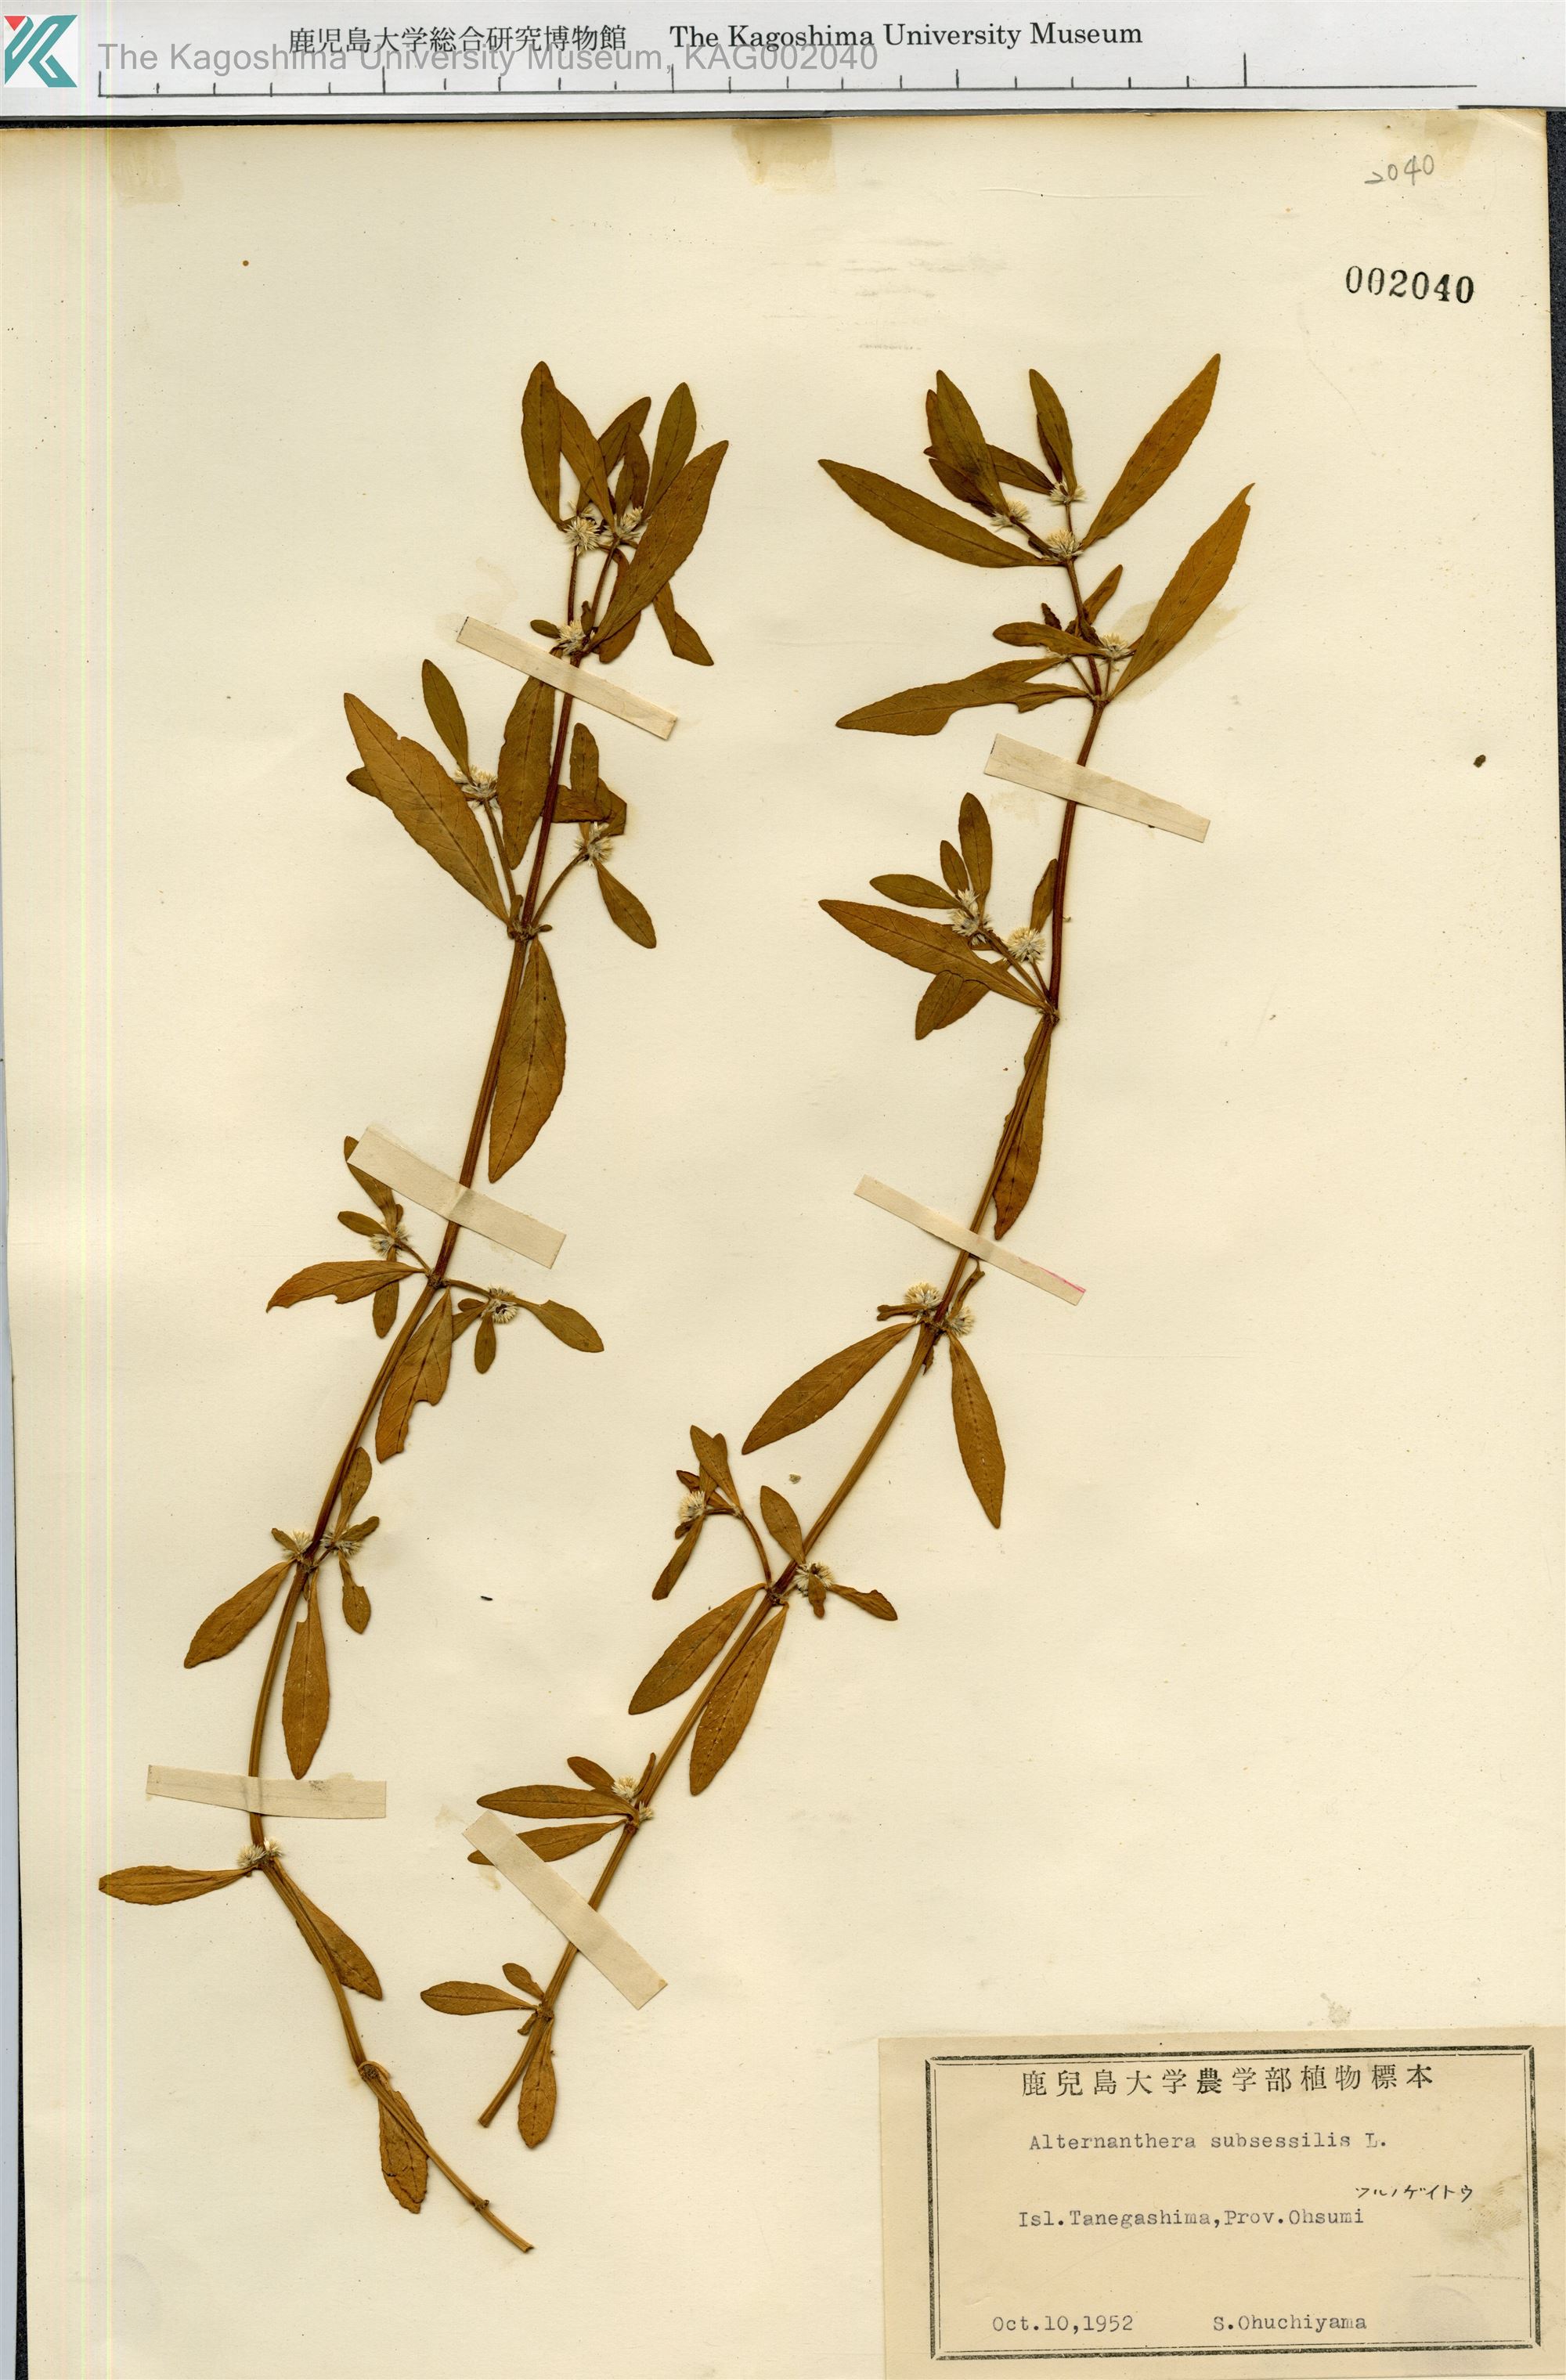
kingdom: Plantae
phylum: Tracheophyta
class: Magnoliopsida
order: Caryophyllales
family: Amaranthaceae
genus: Alternanthera
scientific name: Alternanthera sessilis
